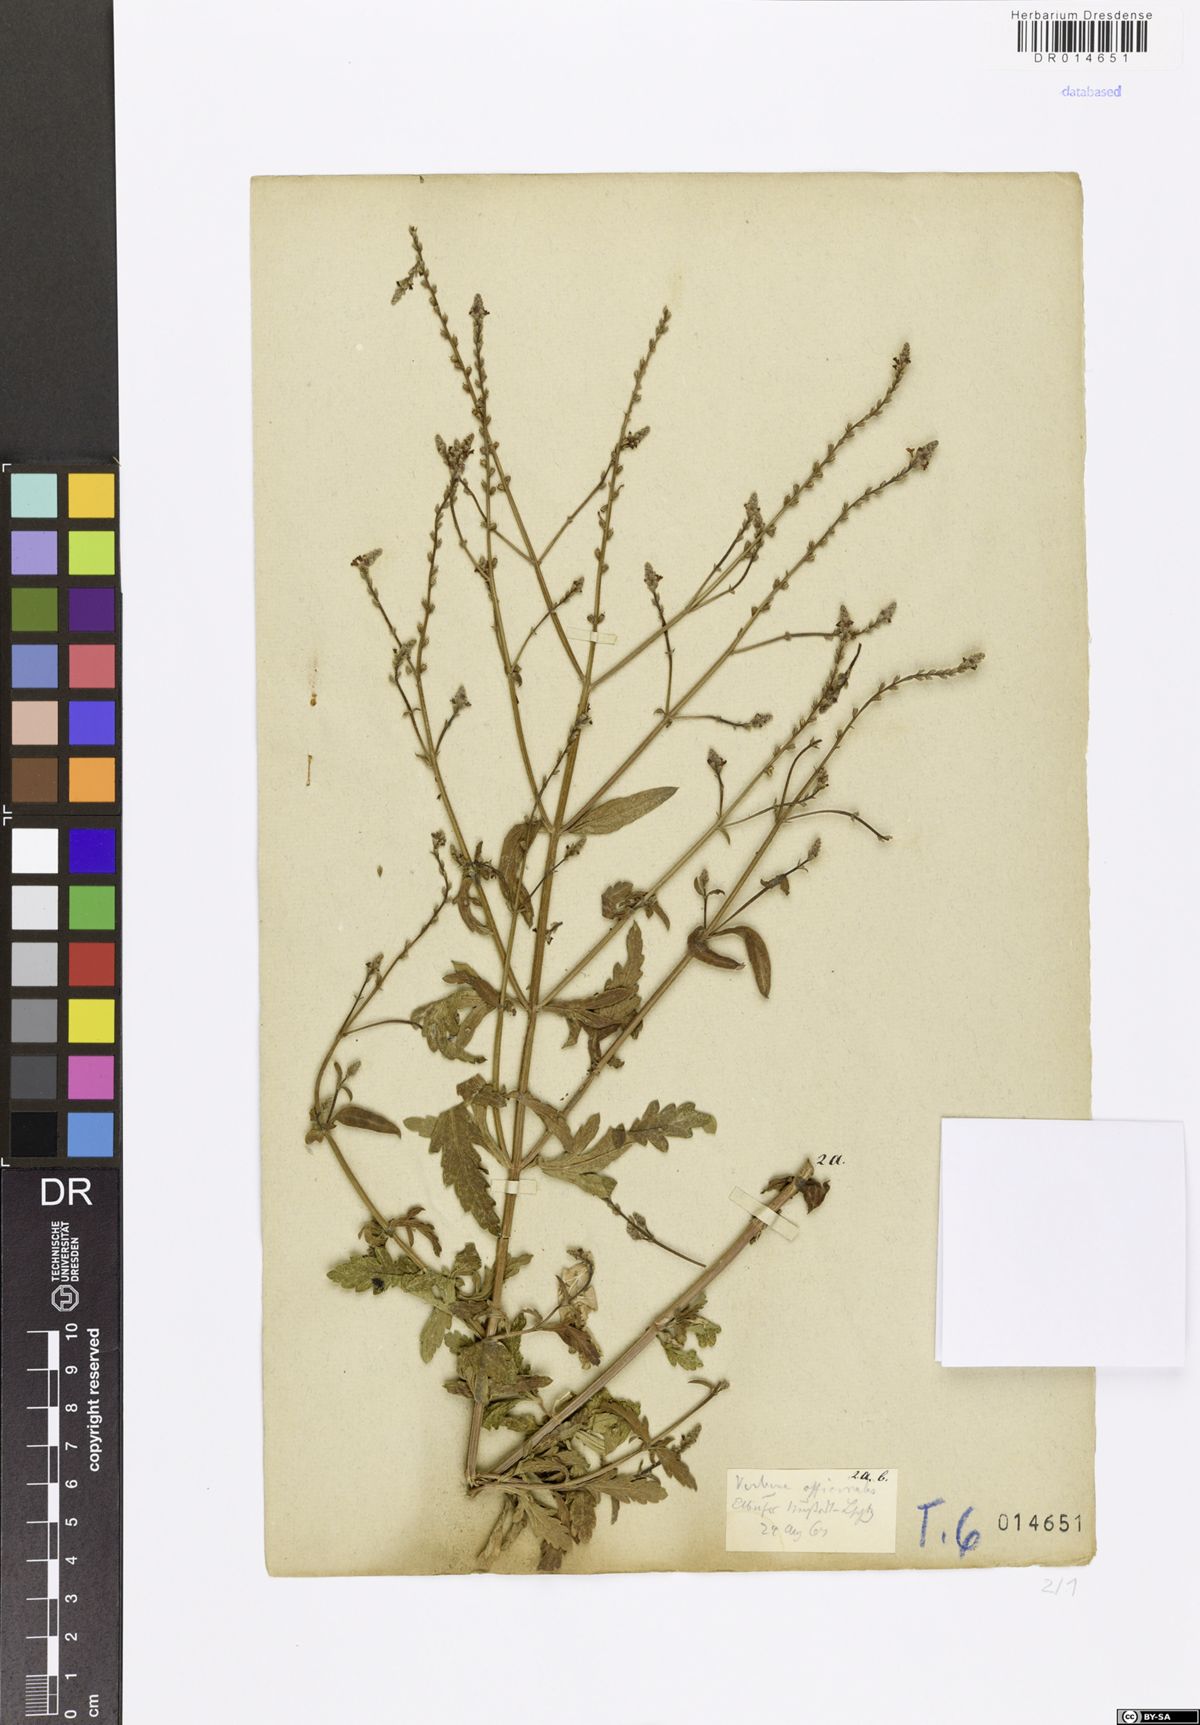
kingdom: Plantae
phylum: Tracheophyta
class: Magnoliopsida
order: Lamiales
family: Verbenaceae
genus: Verbena
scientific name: Verbena officinalis
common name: Vervain
